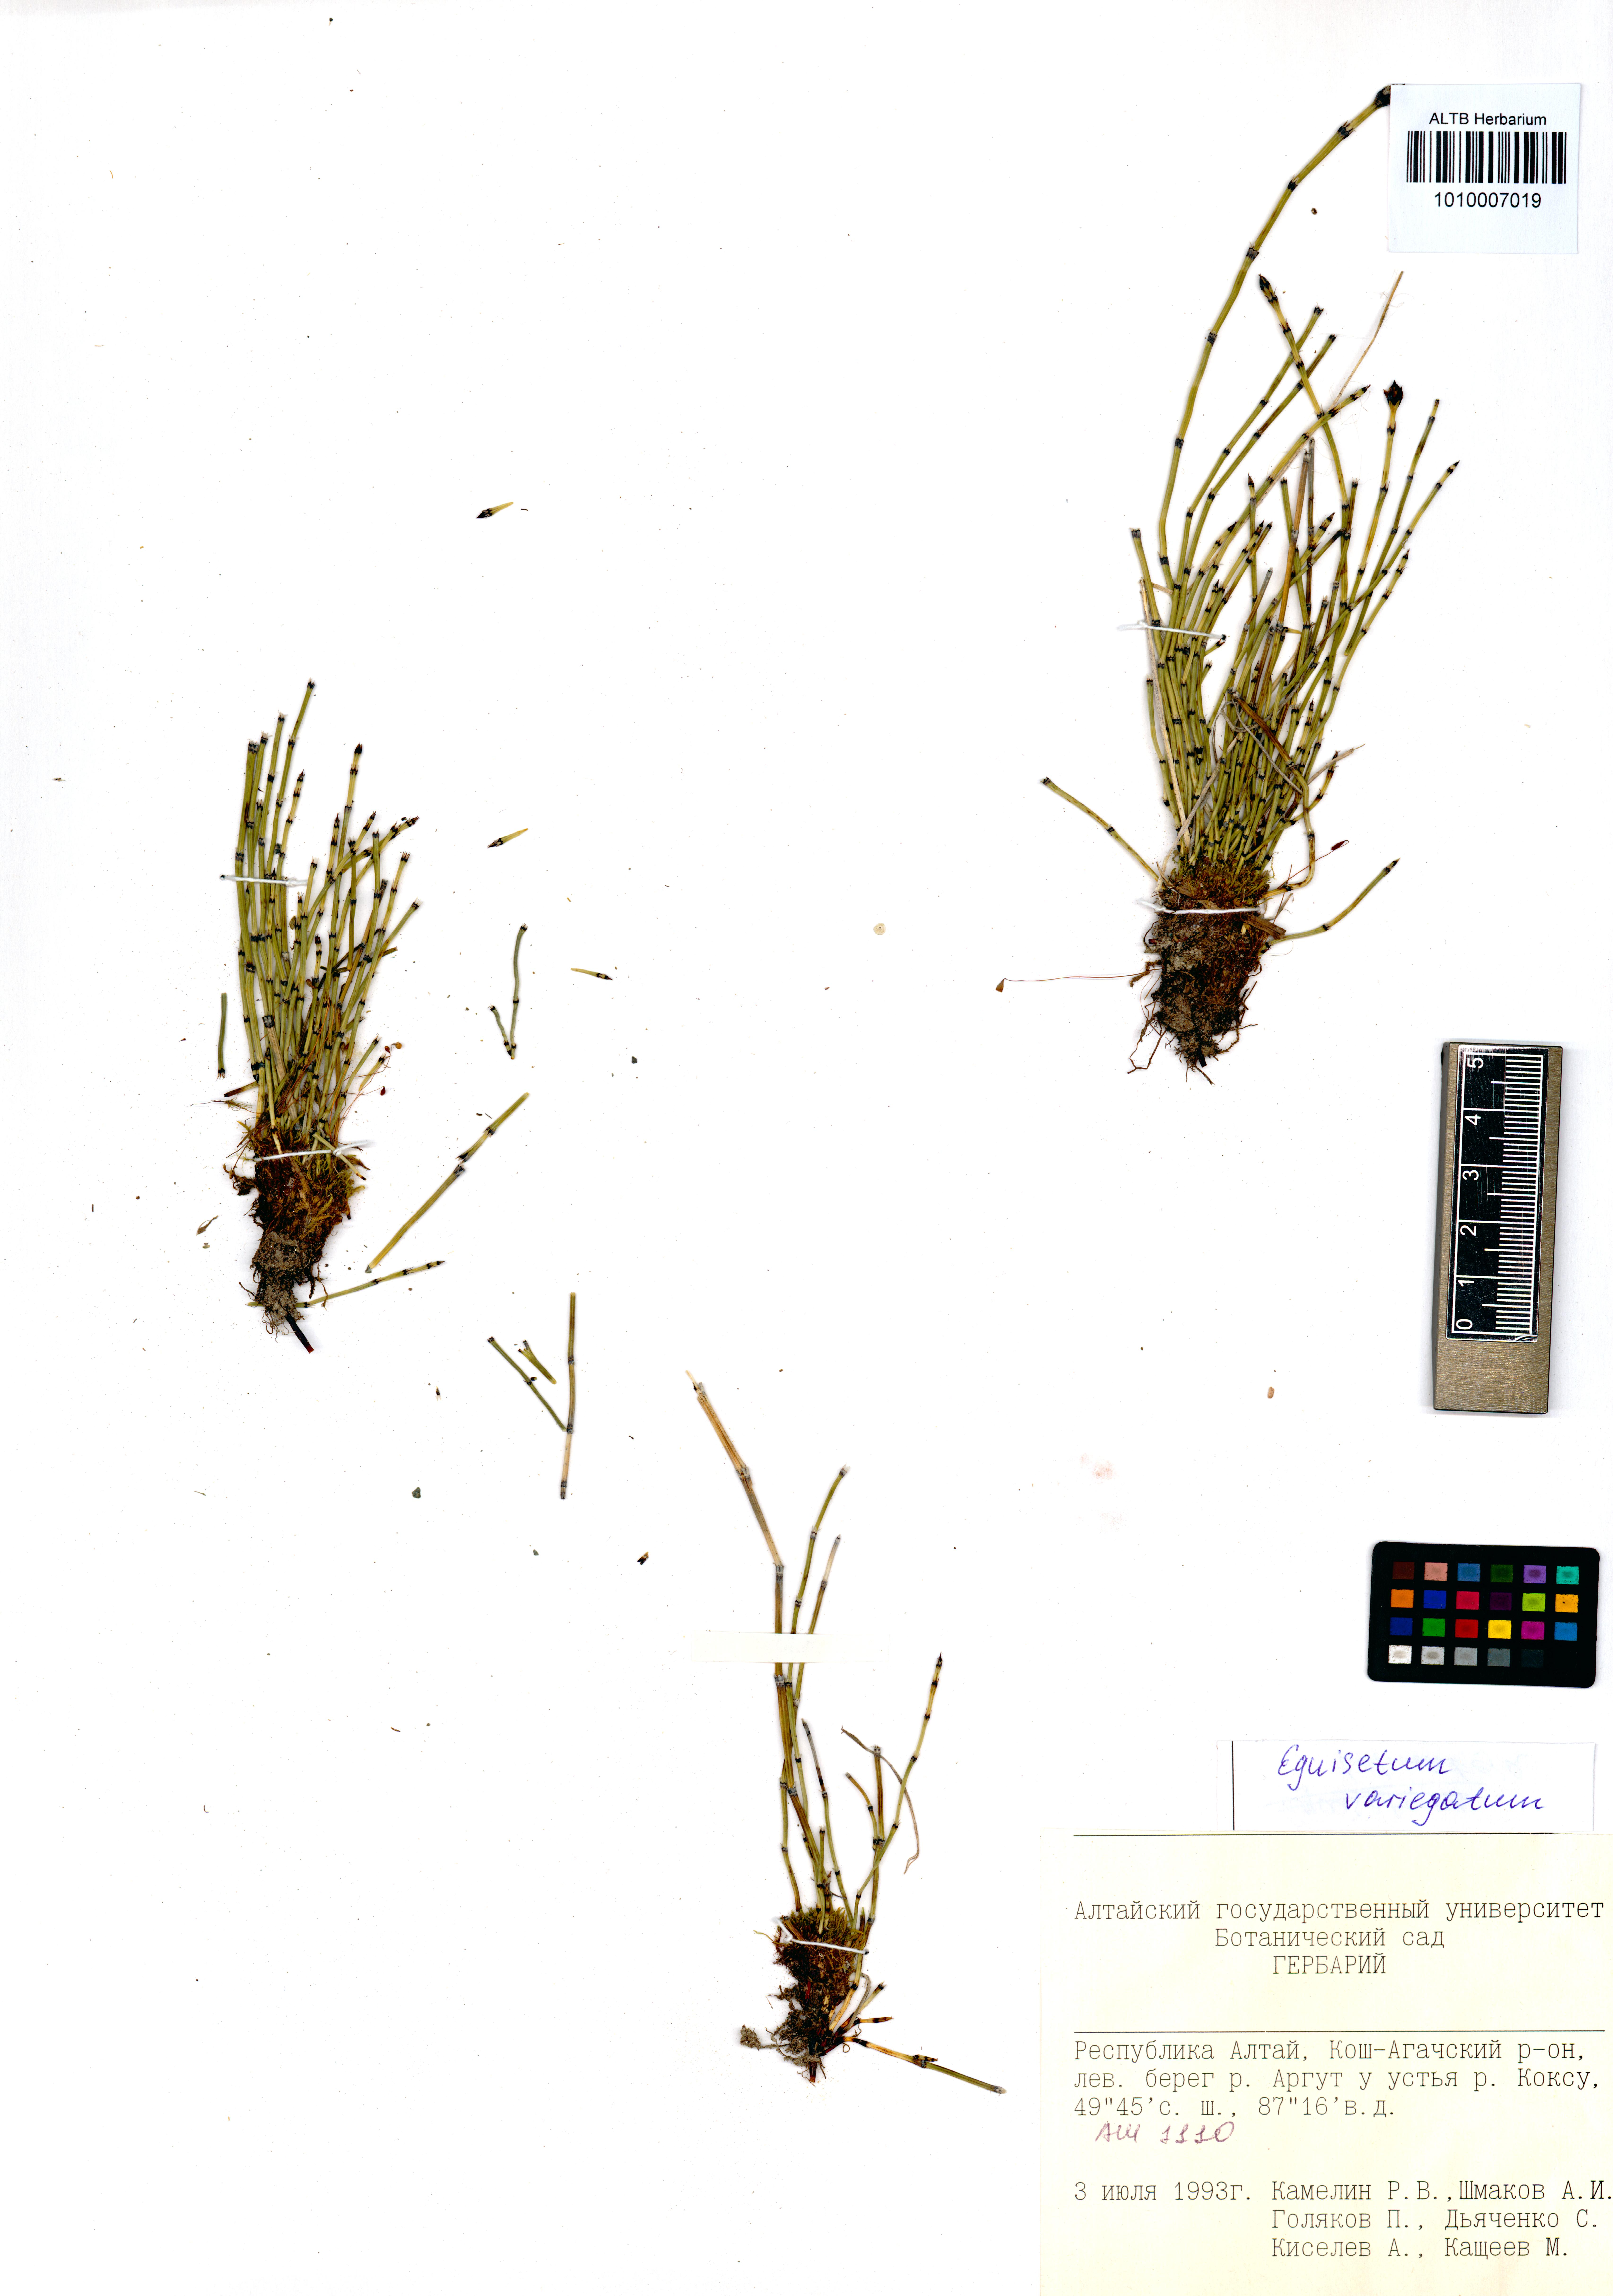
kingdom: Plantae
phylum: Tracheophyta
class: Polypodiopsida
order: Equisetales
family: Equisetaceae
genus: Equisetum
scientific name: Equisetum variegatum
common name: Variegated horsetail
